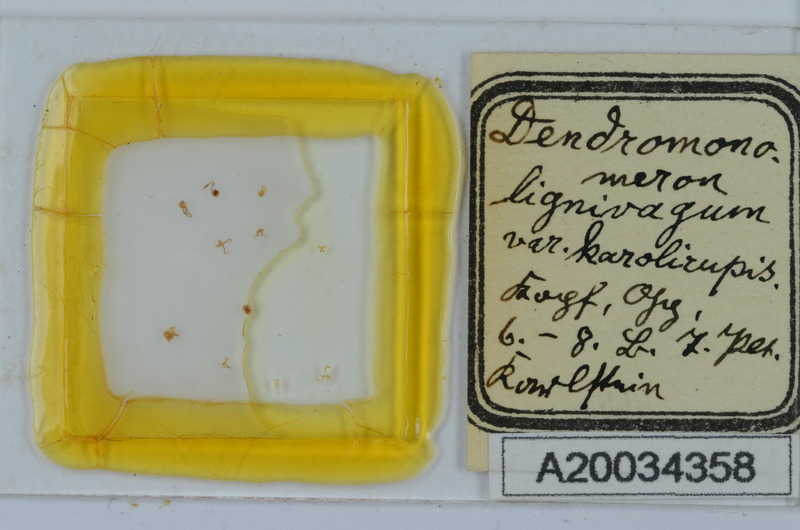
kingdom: Animalia
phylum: Arthropoda
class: Diplopoda
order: Chordeumatida
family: Attemsiidae
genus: Dendromonomeron
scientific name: Dendromonomeron lignivagum
